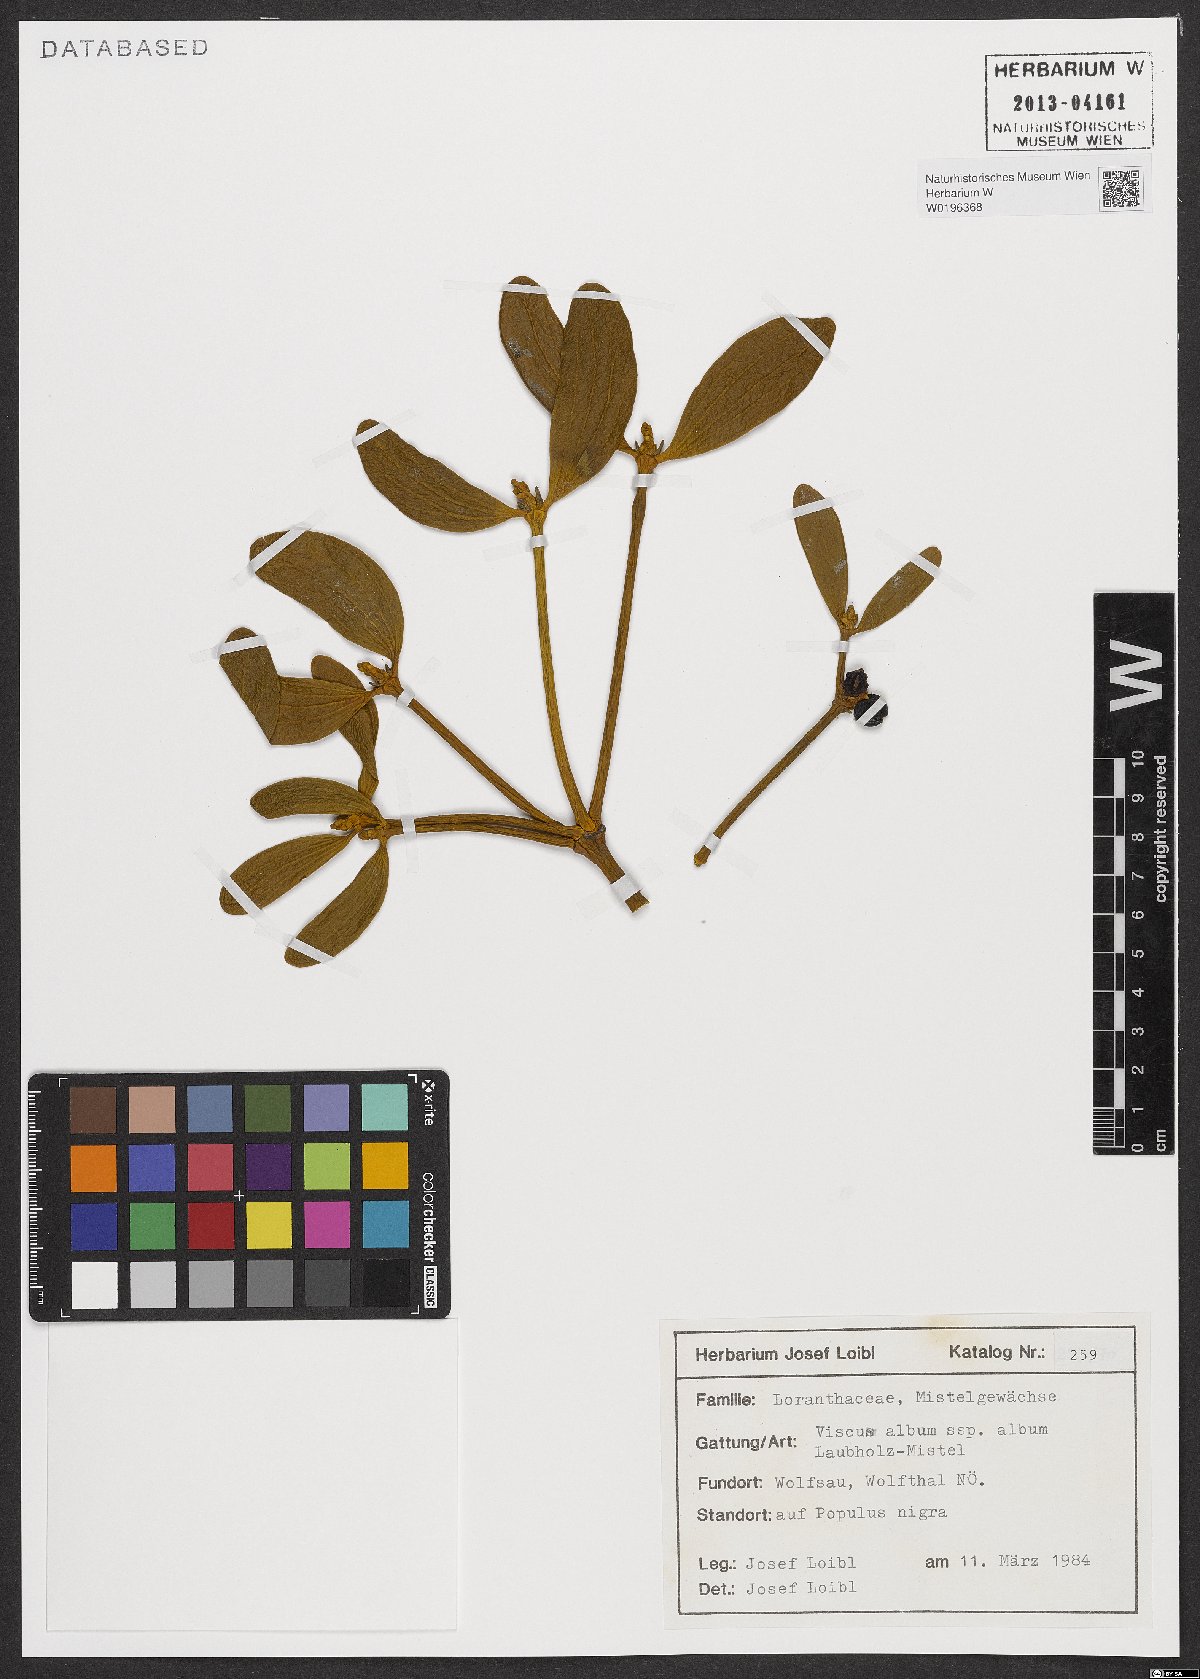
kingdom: Plantae
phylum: Tracheophyta
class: Magnoliopsida
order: Santalales
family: Viscaceae
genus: Viscum
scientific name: Viscum album
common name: Mistletoe
